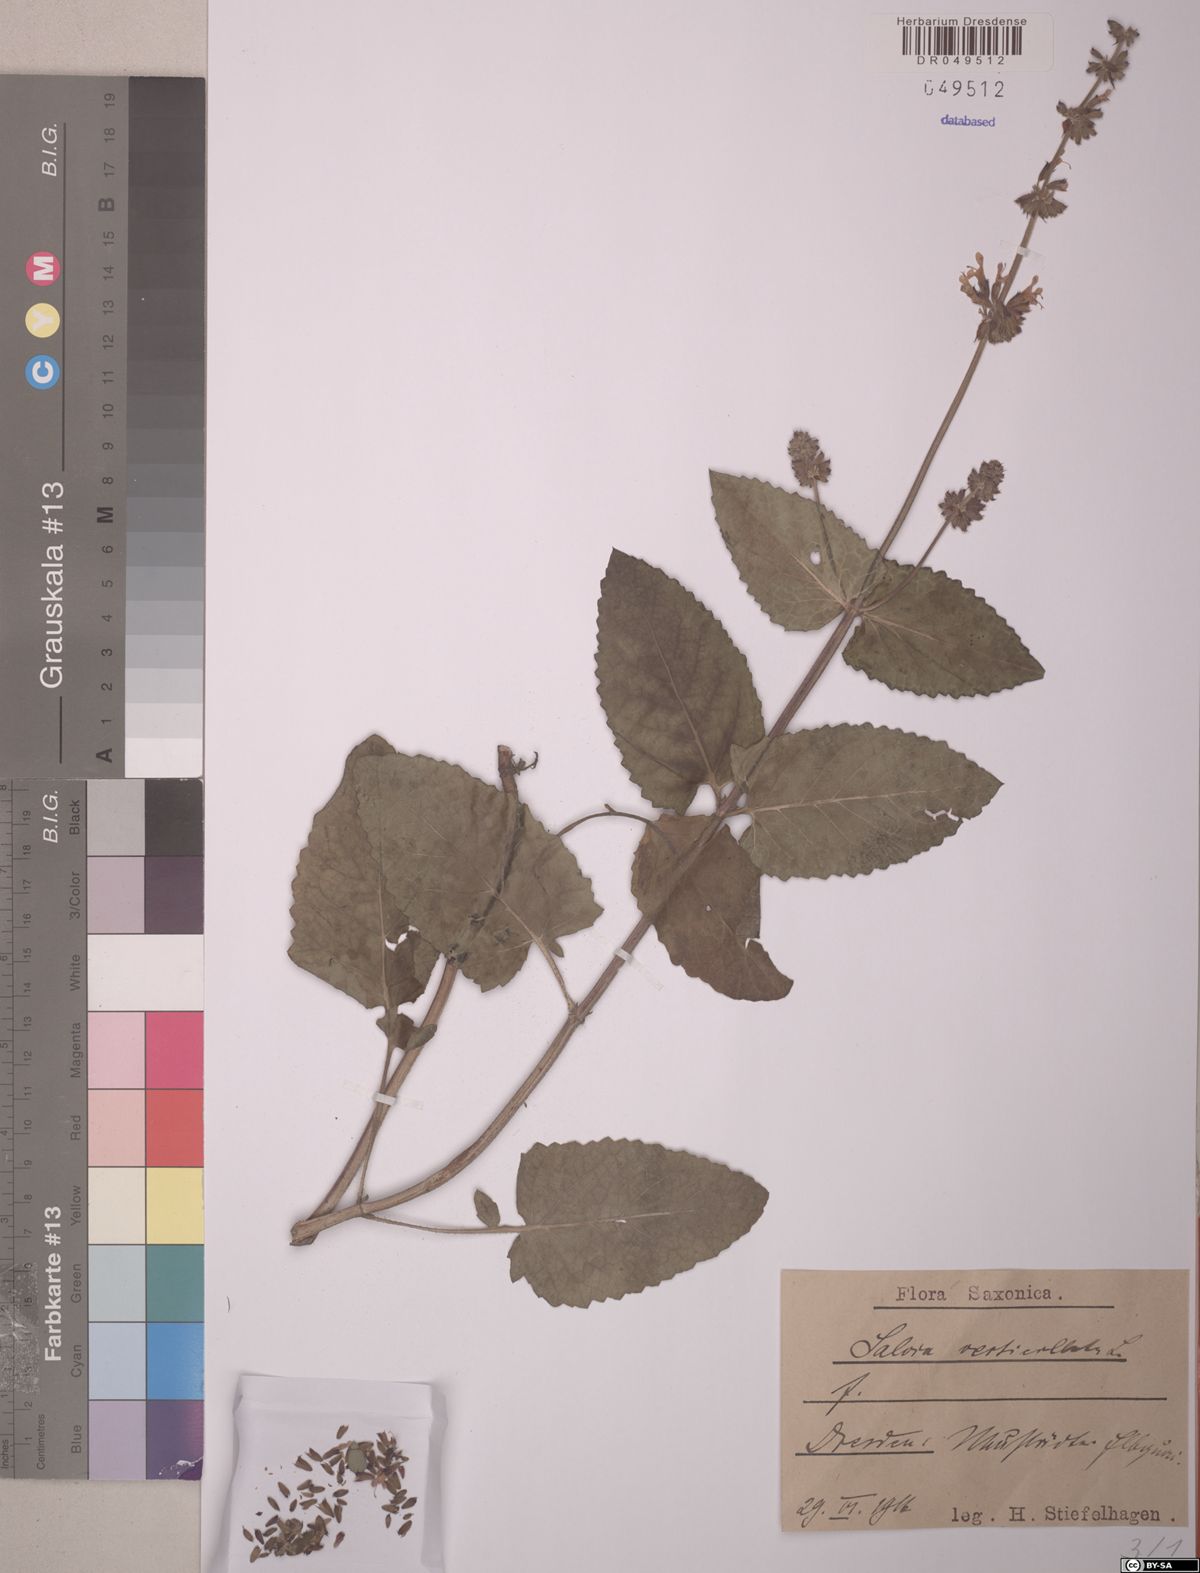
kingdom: Plantae
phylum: Tracheophyta
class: Magnoliopsida
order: Lamiales
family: Lamiaceae
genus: Salvia
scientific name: Salvia verticillata
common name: Whorled clary
